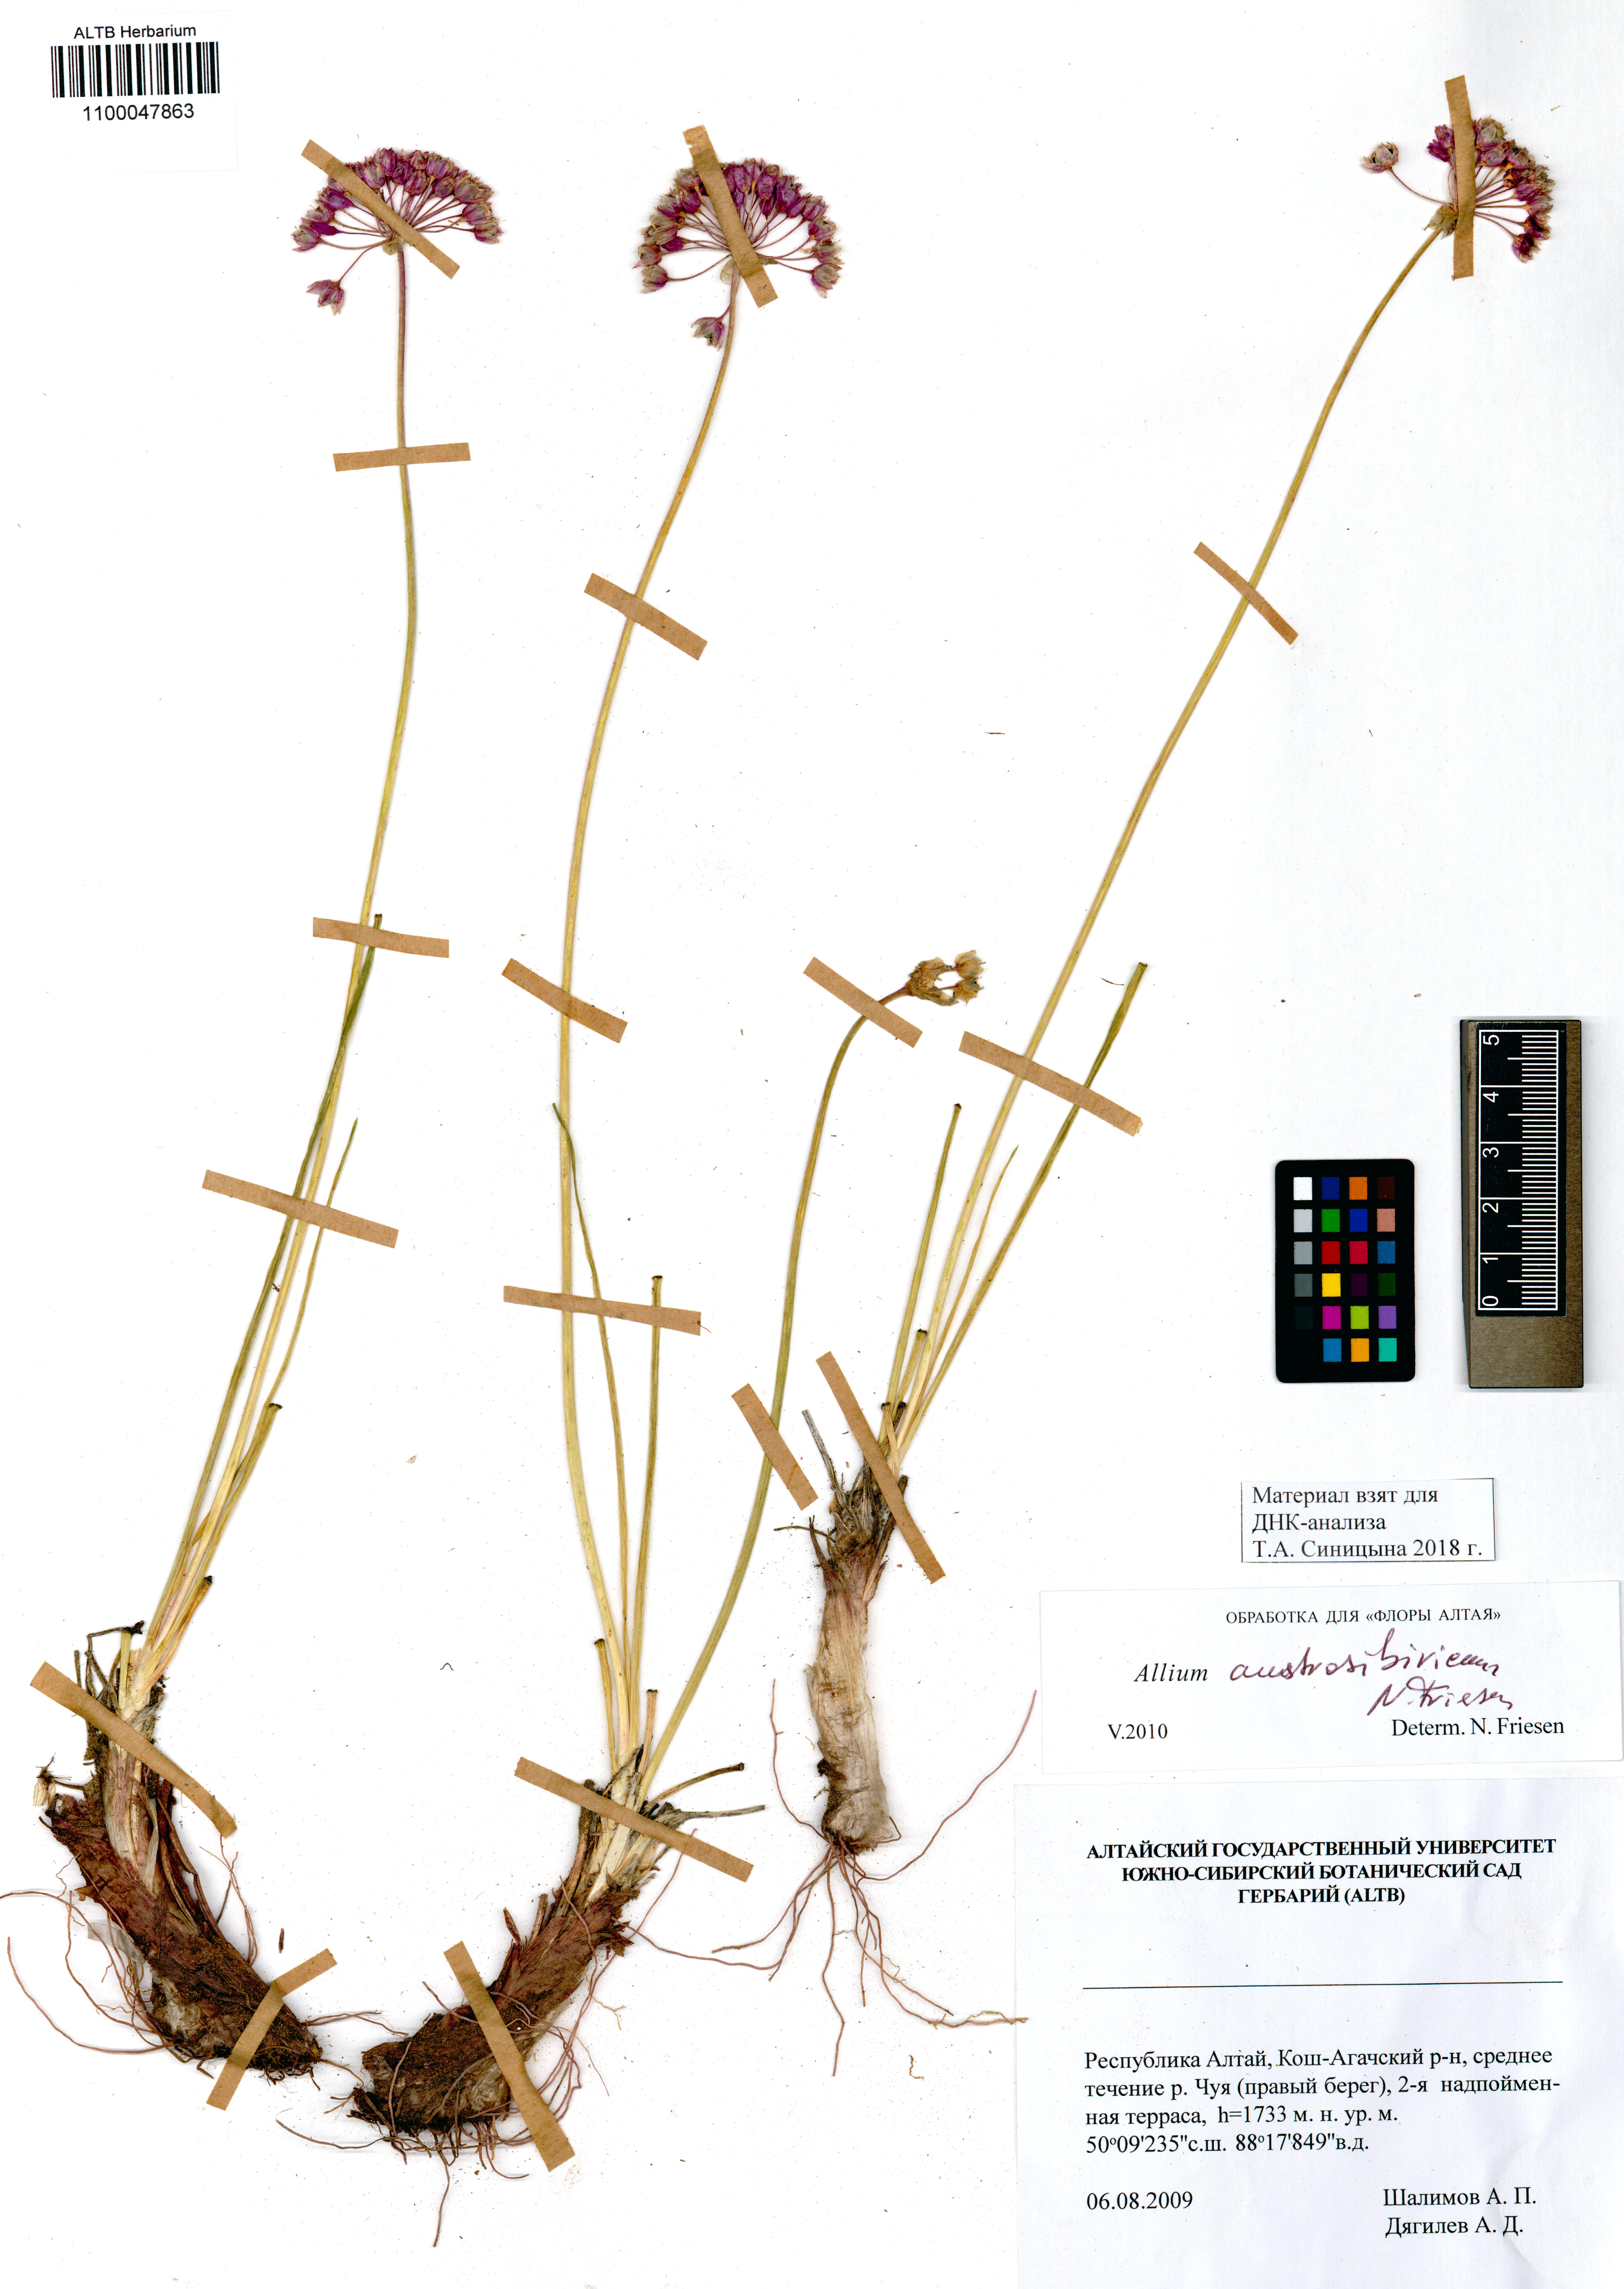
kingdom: Plantae
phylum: Tracheophyta
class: Liliopsida
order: Asparagales
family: Amaryllidaceae
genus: Allium
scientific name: Allium austrosibiricum
